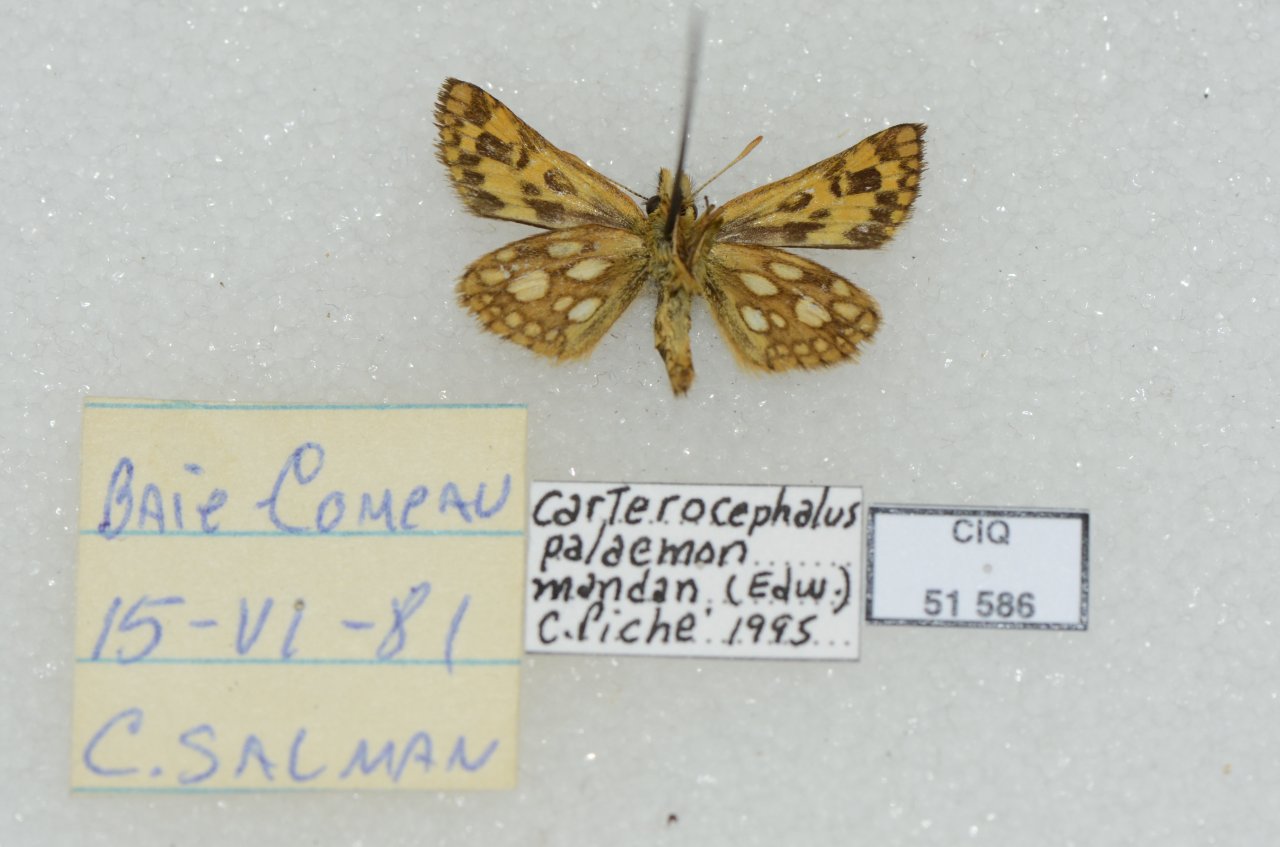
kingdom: Animalia
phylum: Arthropoda
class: Insecta
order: Lepidoptera
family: Hesperiidae
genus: Carterocephalus
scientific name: Carterocephalus palaemon
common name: Chequered Skipper
